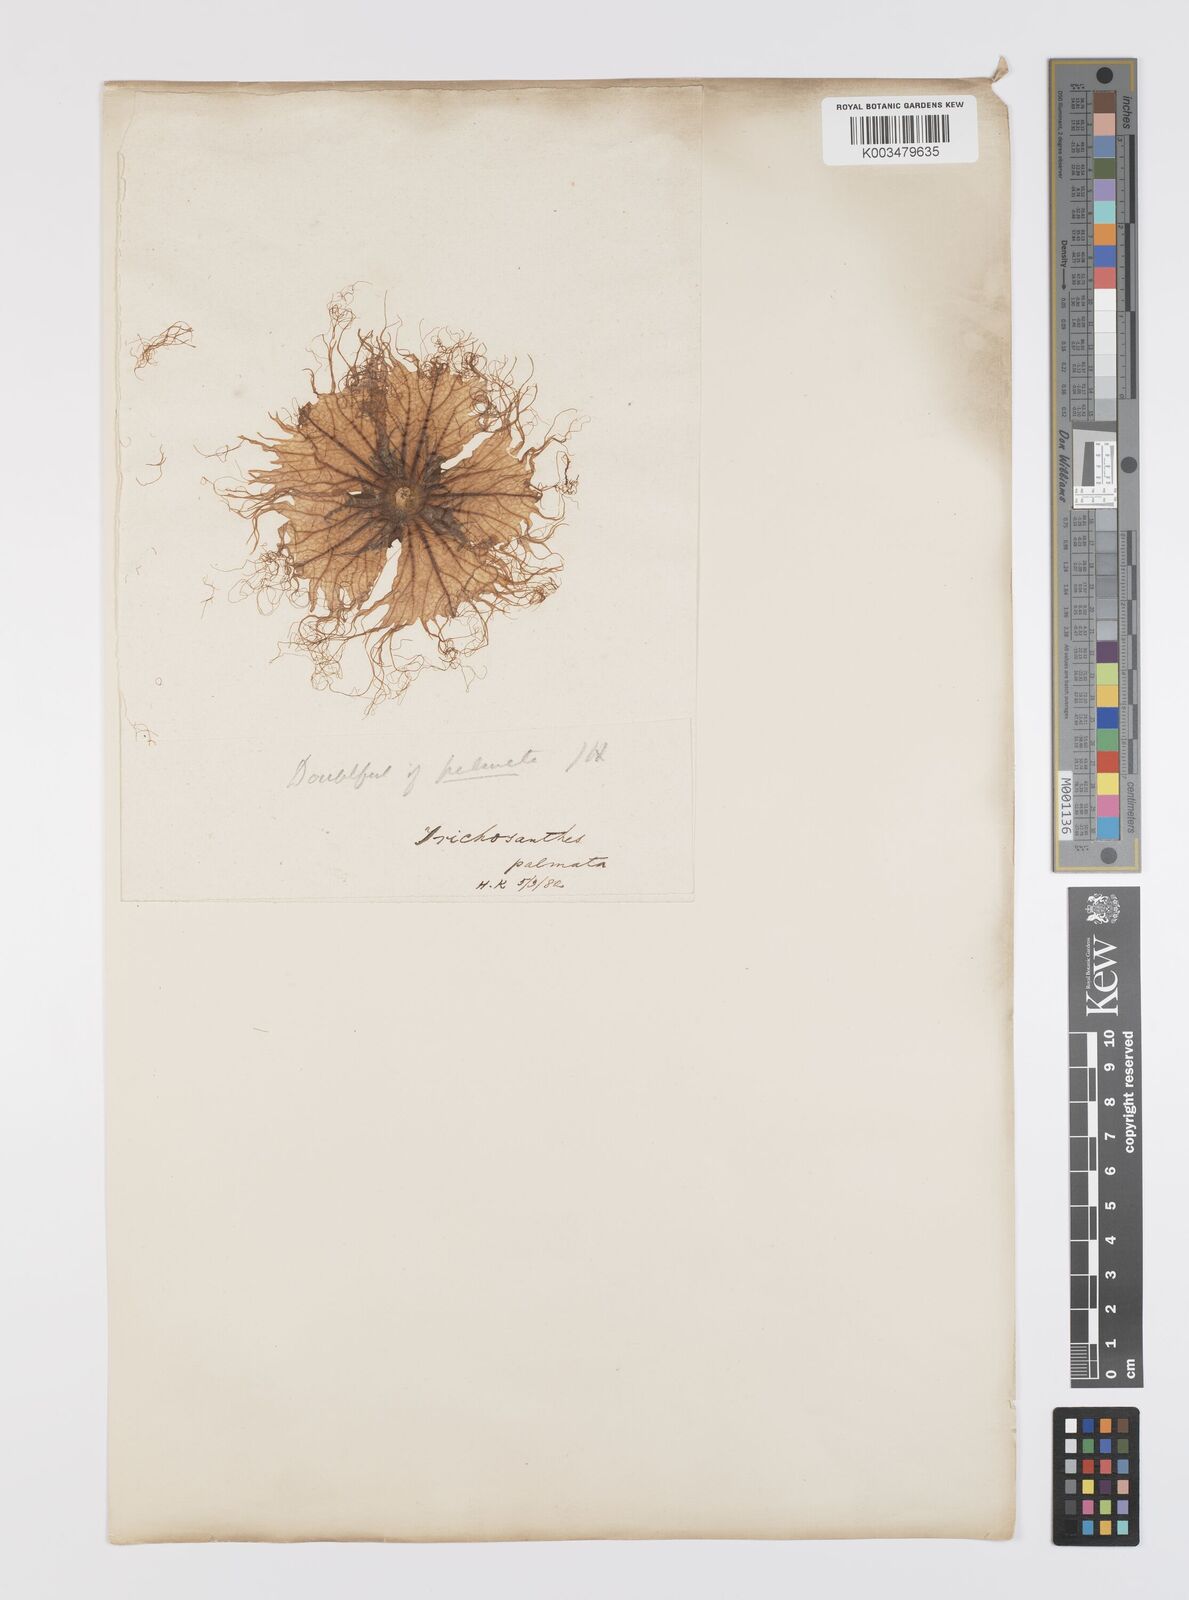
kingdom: Plantae
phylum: Tracheophyta
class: Magnoliopsida
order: Cucurbitales
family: Cucurbitaceae
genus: Trichosanthes
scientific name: Trichosanthes cucumerina
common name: Snakegourd
